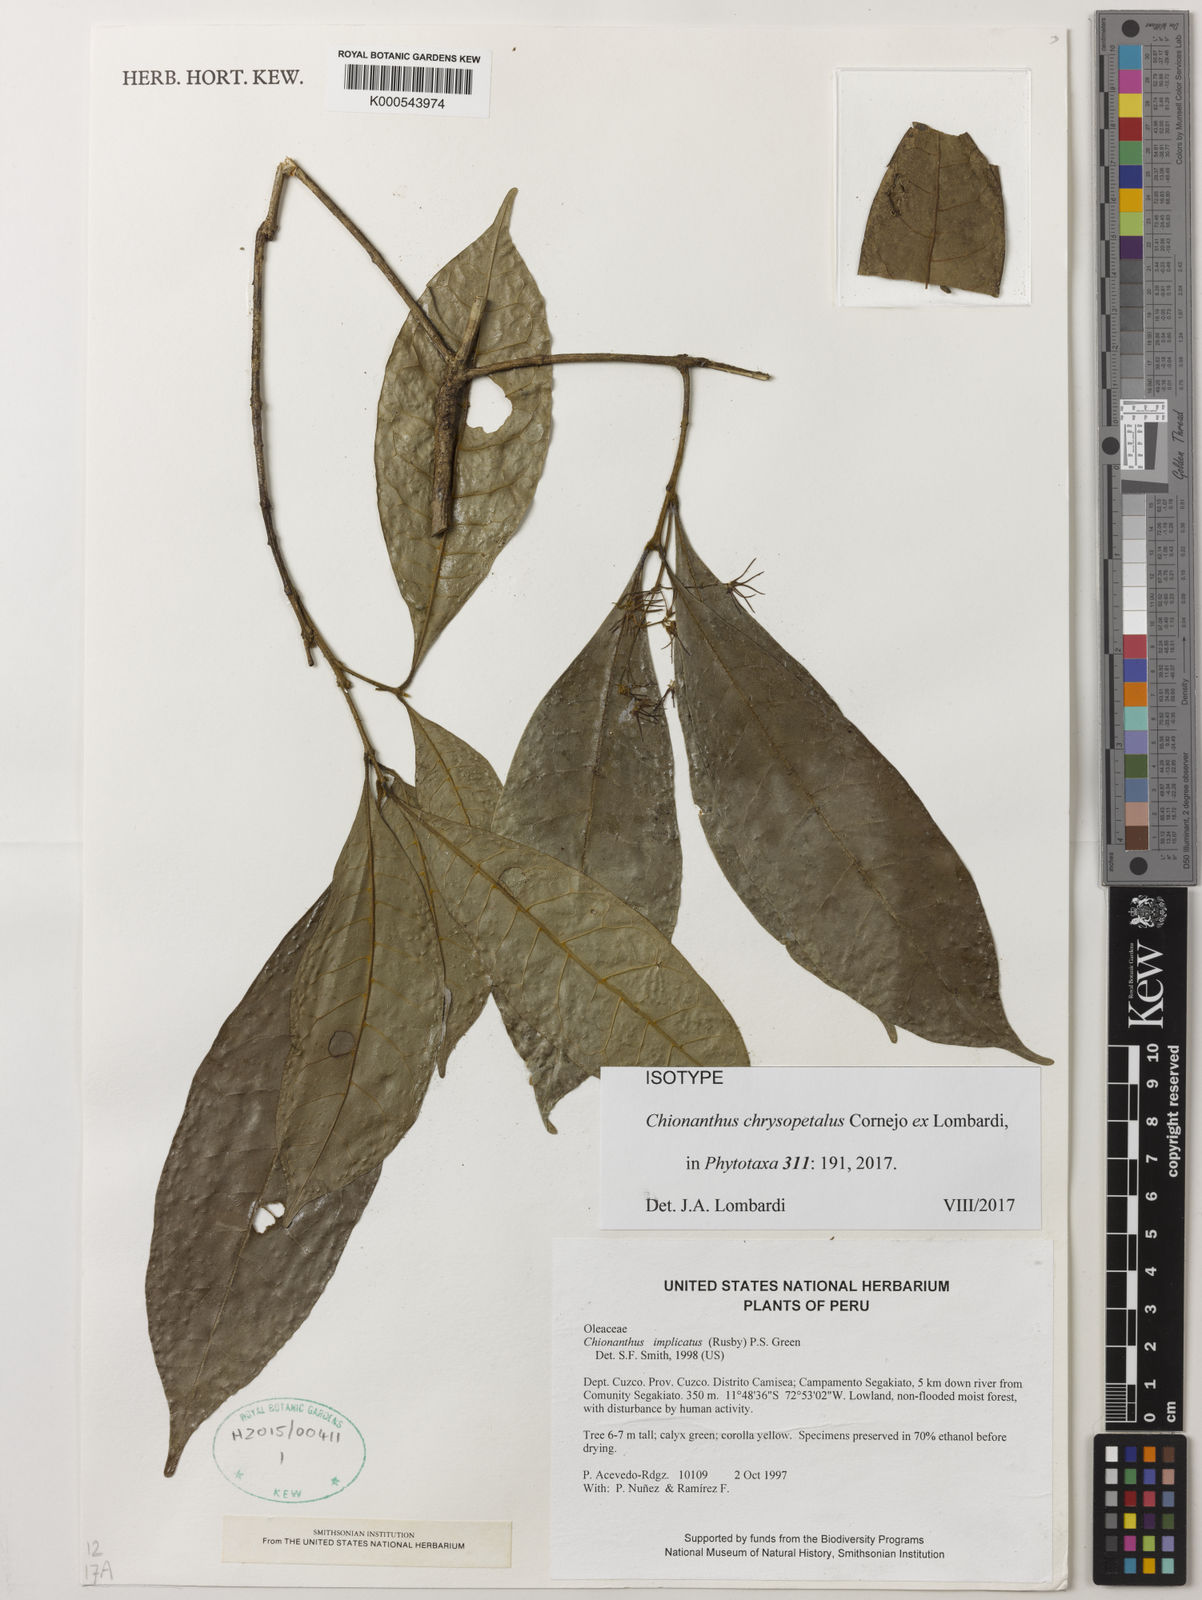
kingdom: Plantae
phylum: Tracheophyta
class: Magnoliopsida
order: Lamiales
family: Oleaceae
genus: Chionanthus
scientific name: Chionanthus chrysopetalus
